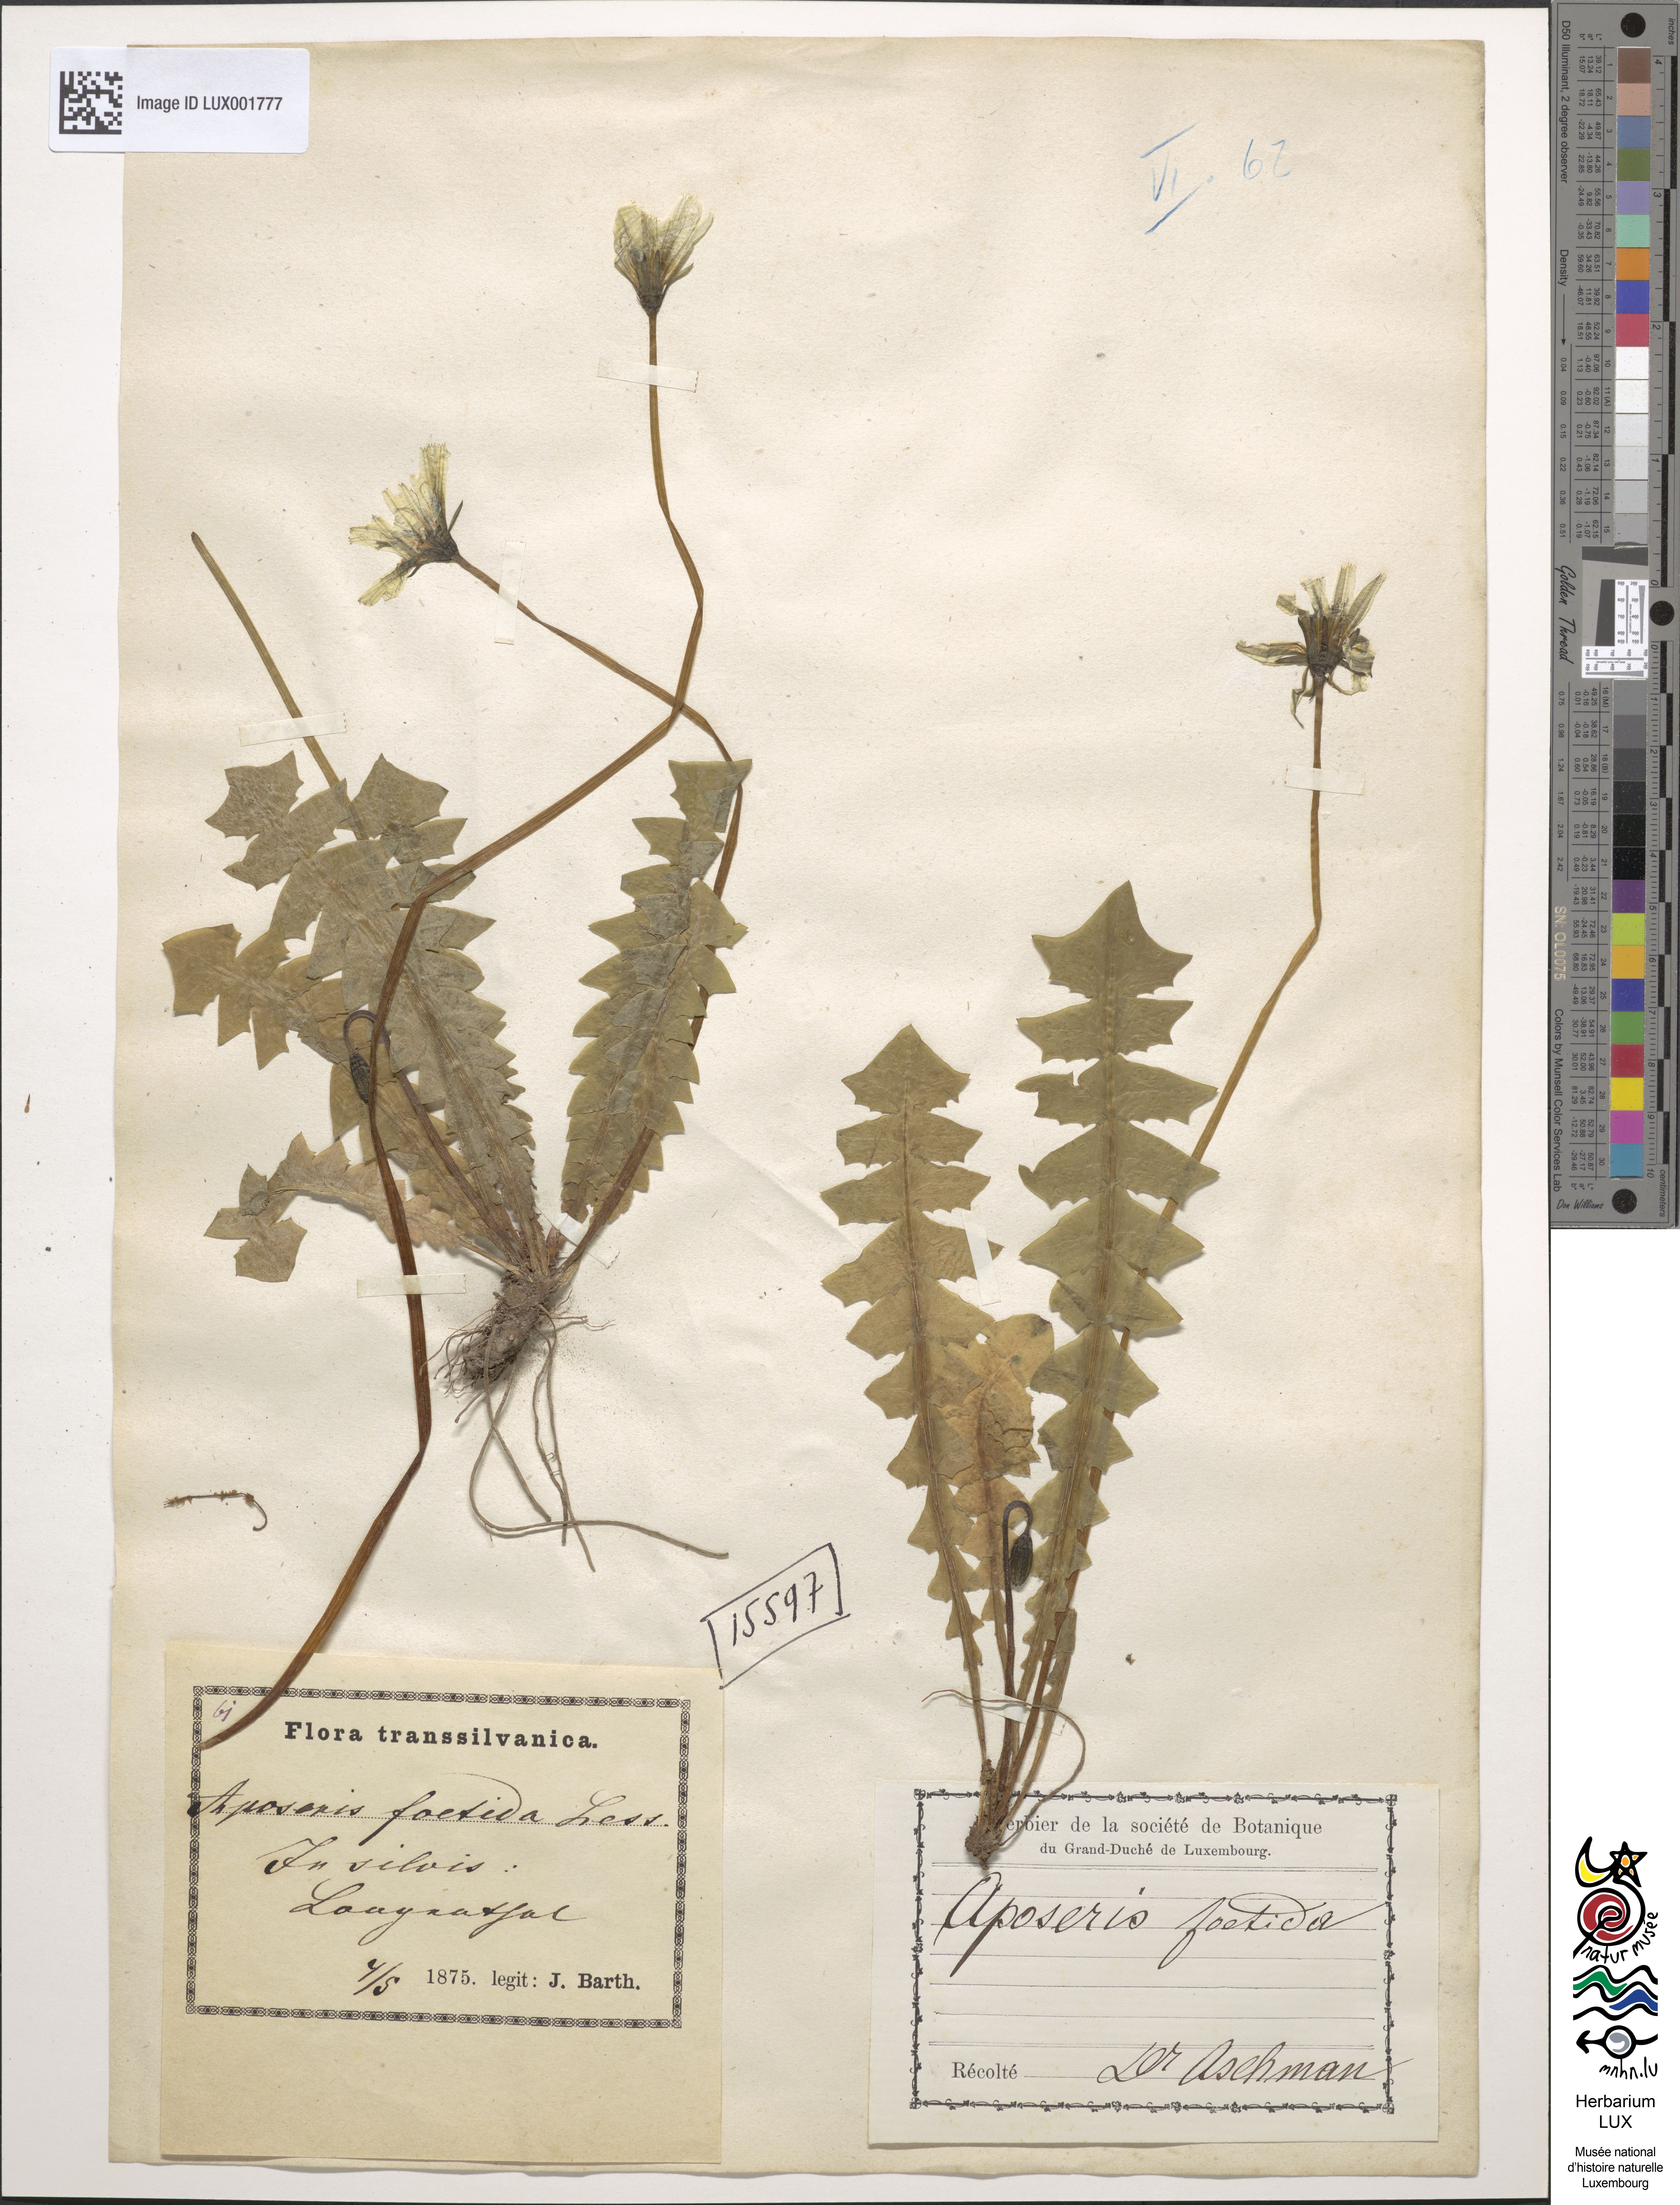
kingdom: Plantae
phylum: Tracheophyta
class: Magnoliopsida
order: Asterales
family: Asteraceae
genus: Aposeris
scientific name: Aposeris foetida
